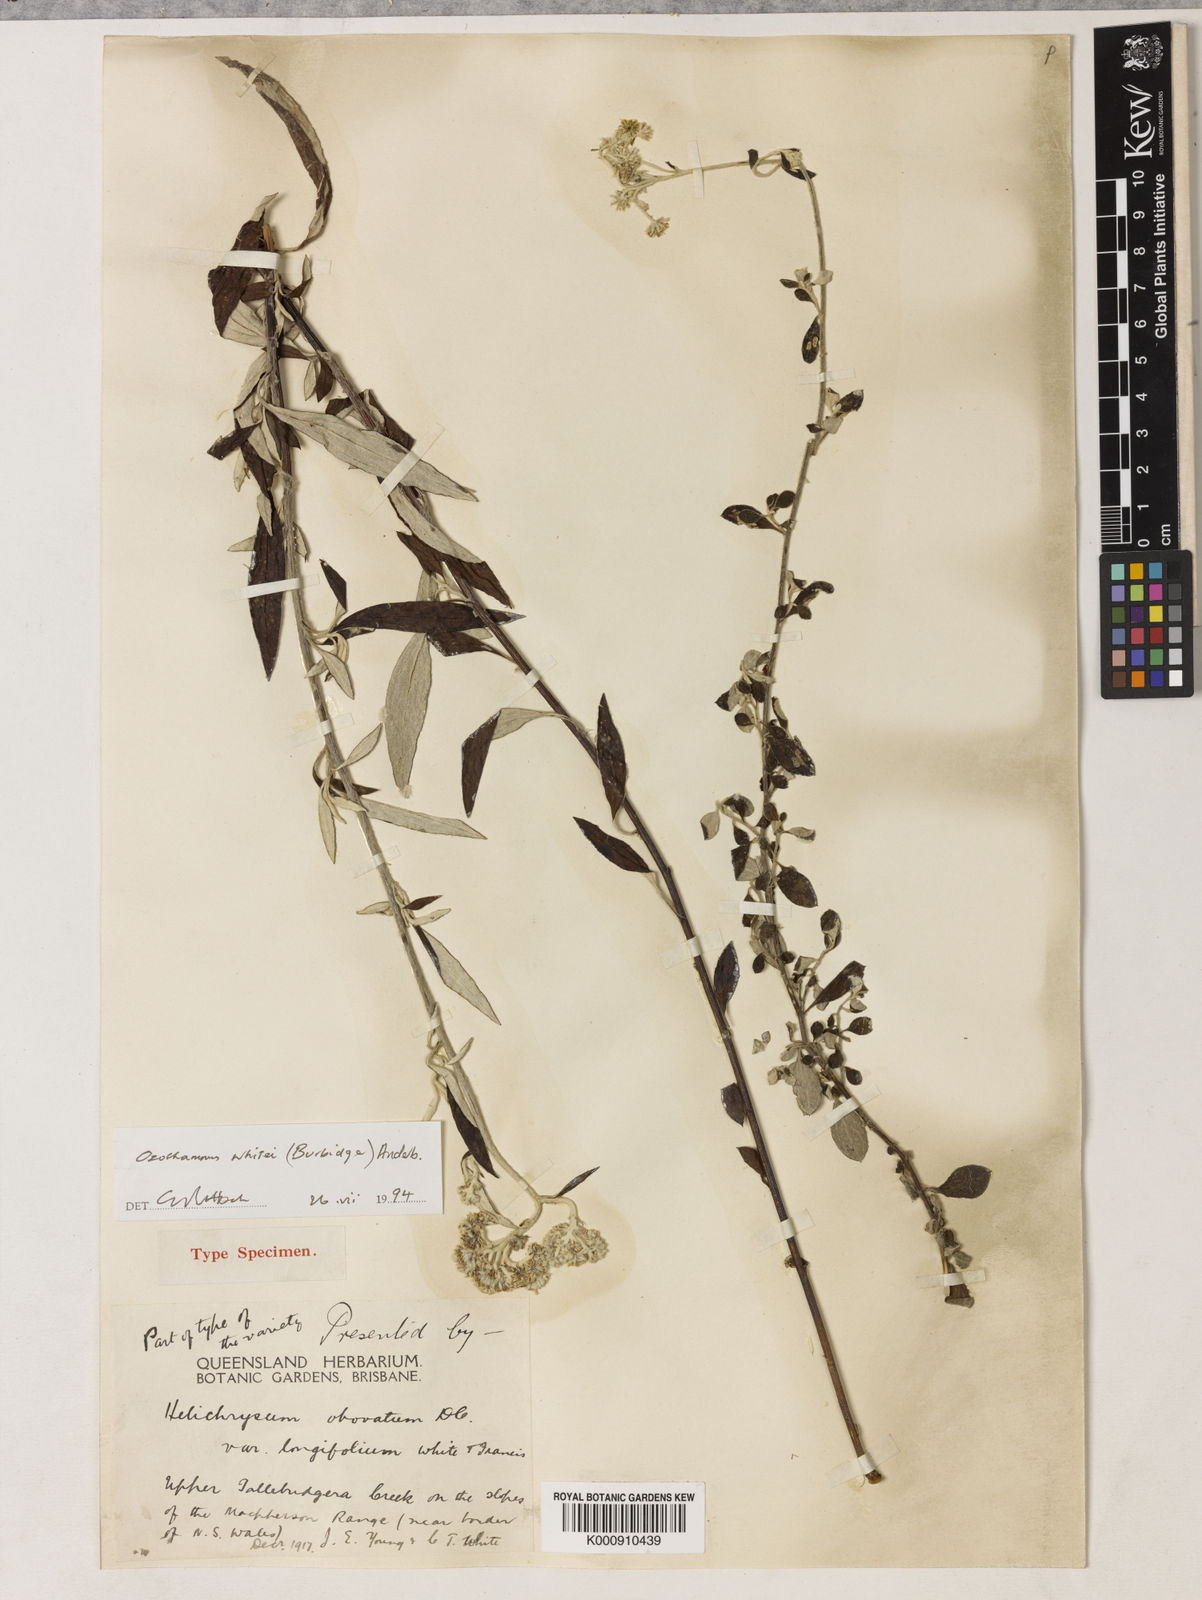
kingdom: Plantae
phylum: Tracheophyta
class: Magnoliopsida
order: Asterales
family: Asteraceae
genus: Ozothamnus
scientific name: Ozothamnus whitei
